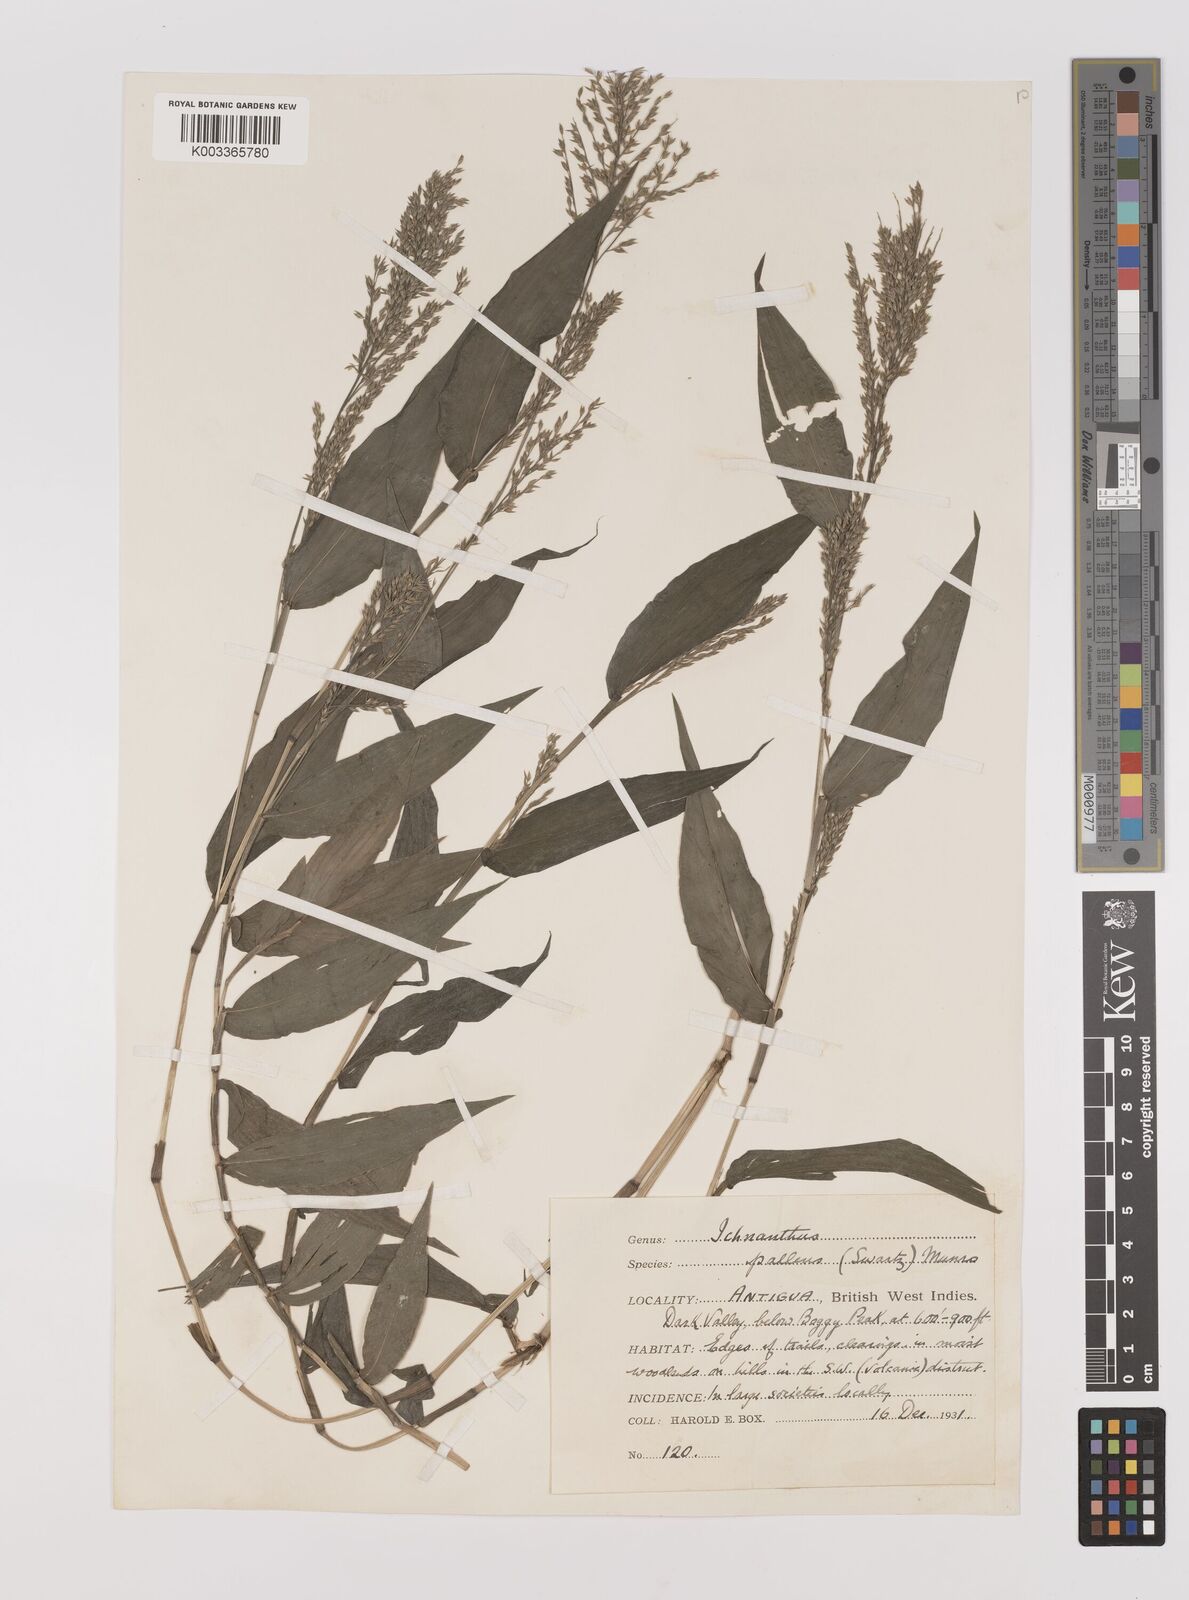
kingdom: Plantae
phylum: Tracheophyta
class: Liliopsida
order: Poales
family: Poaceae
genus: Ichnanthus
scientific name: Ichnanthus pallens
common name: Water grass
